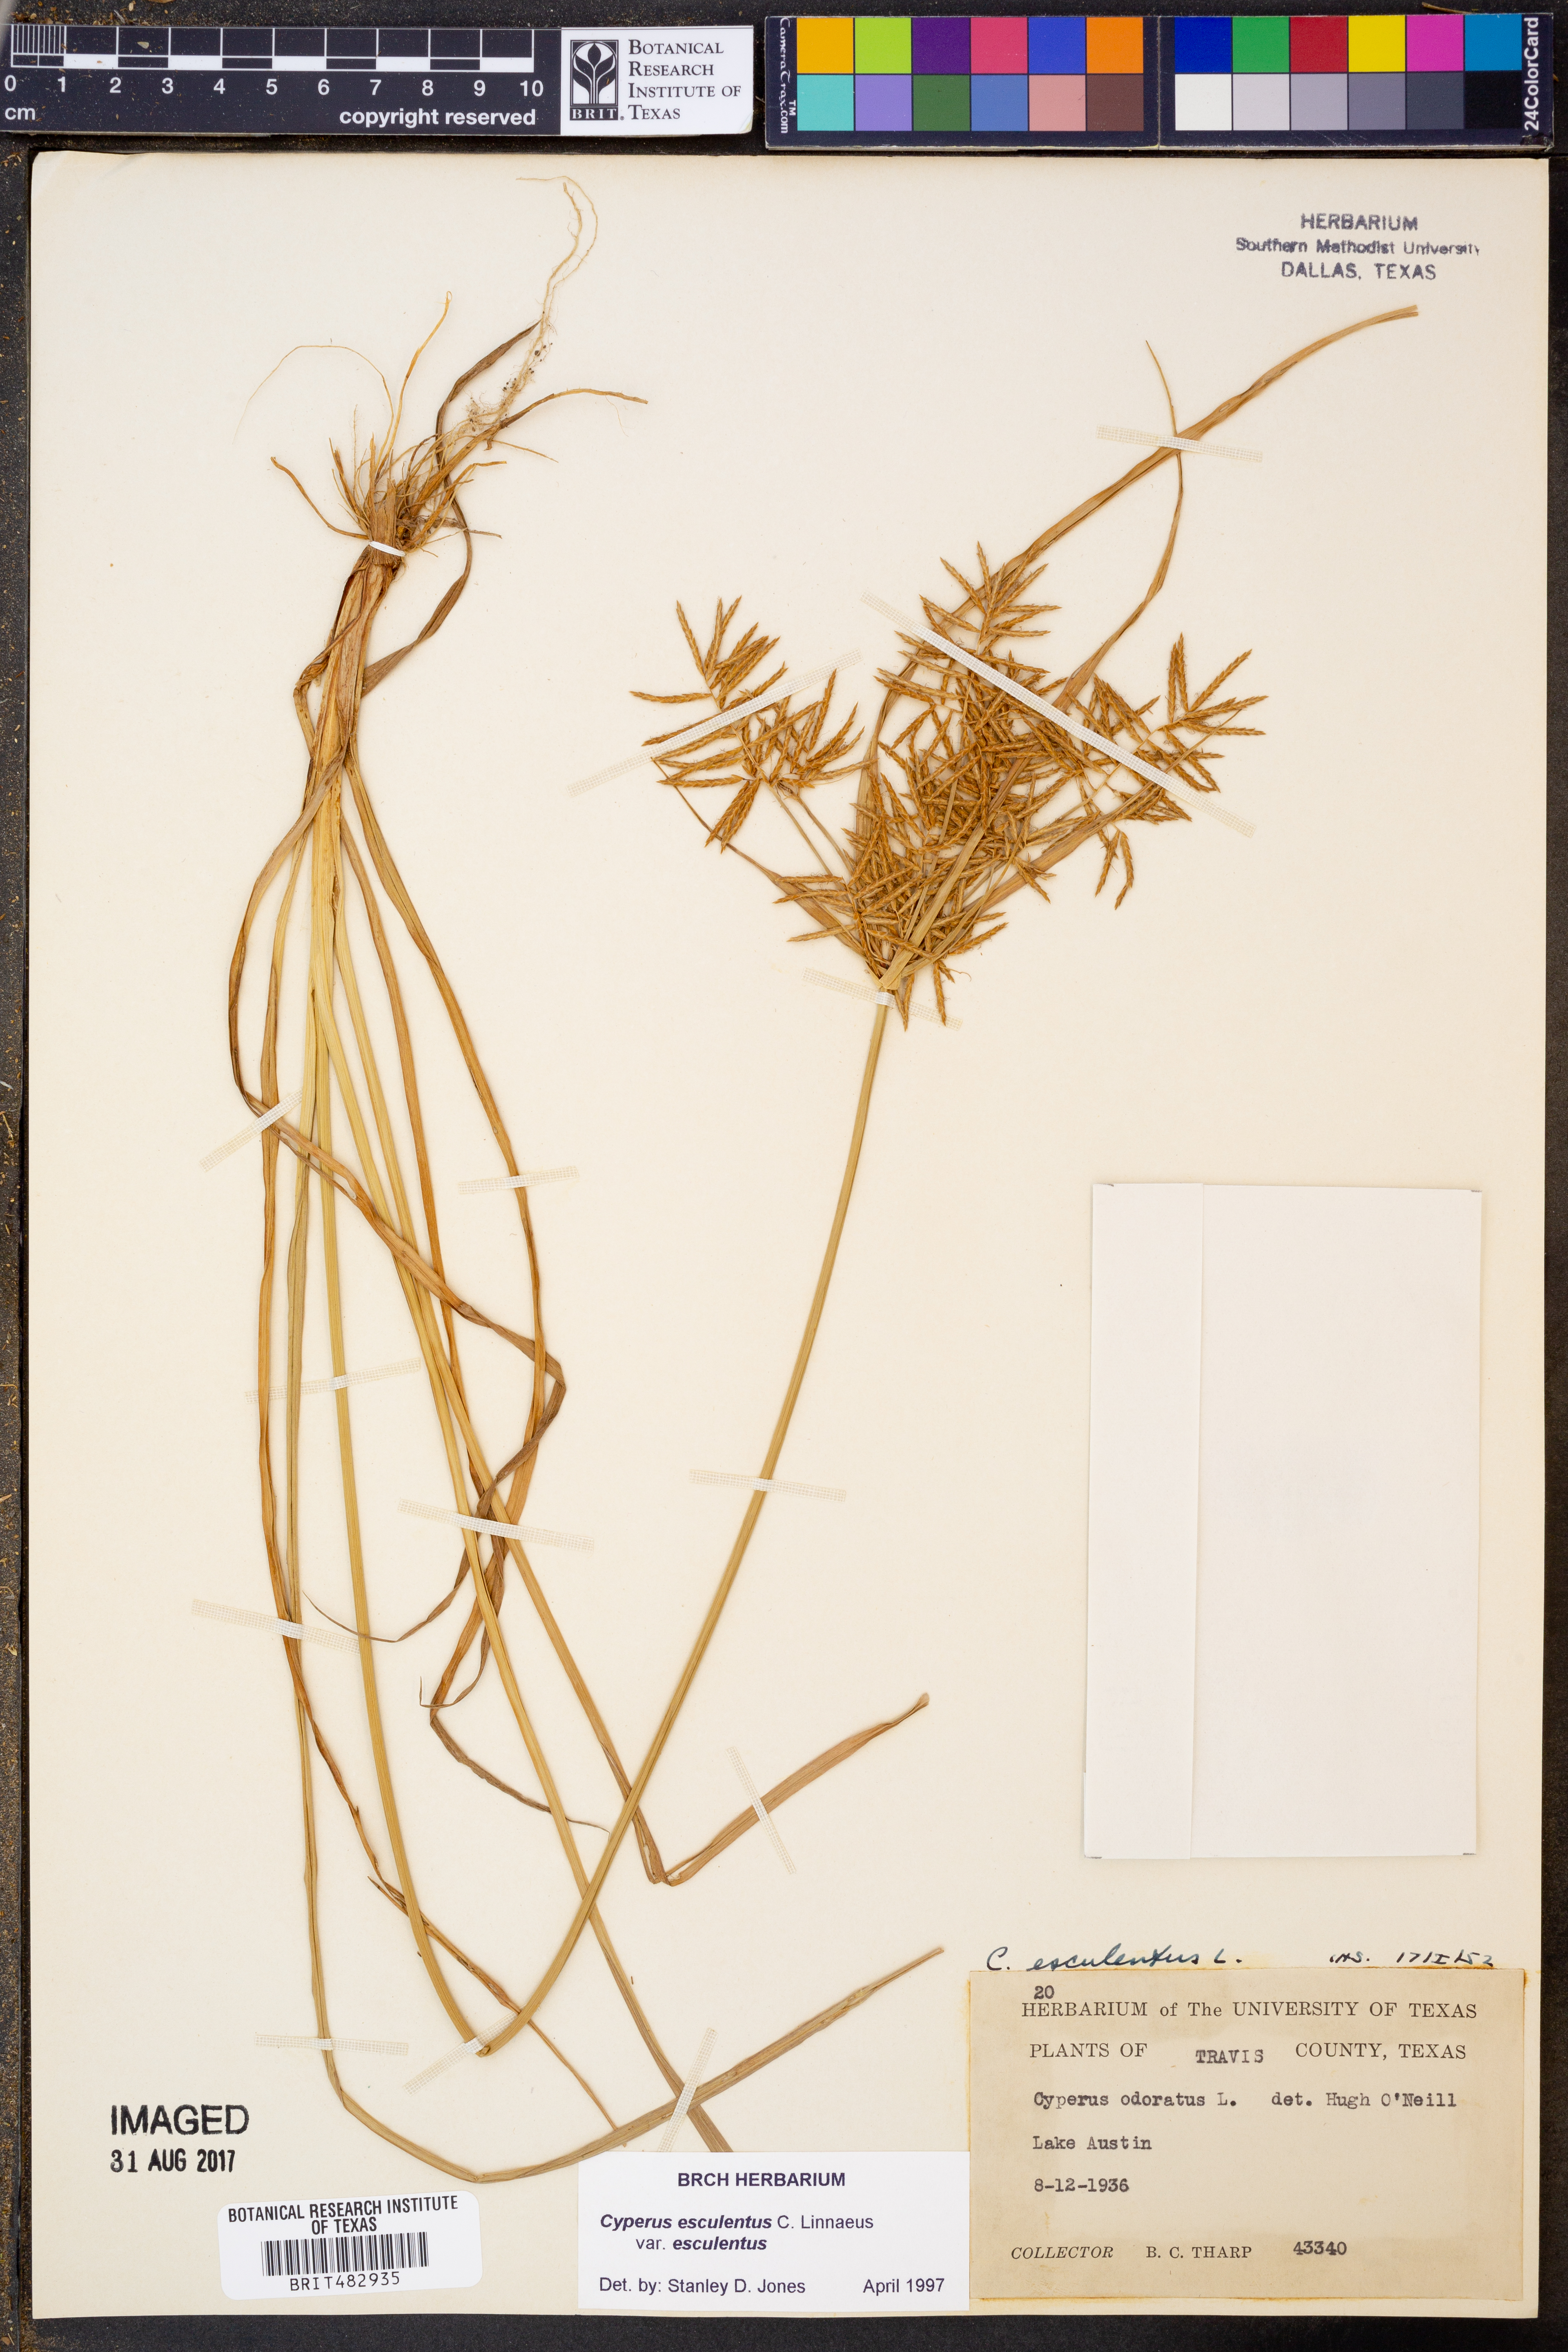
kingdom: Plantae
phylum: Tracheophyta
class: Liliopsida
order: Poales
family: Cyperaceae
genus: Cyperus
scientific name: Cyperus esculentus
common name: Yellow nutsedge
